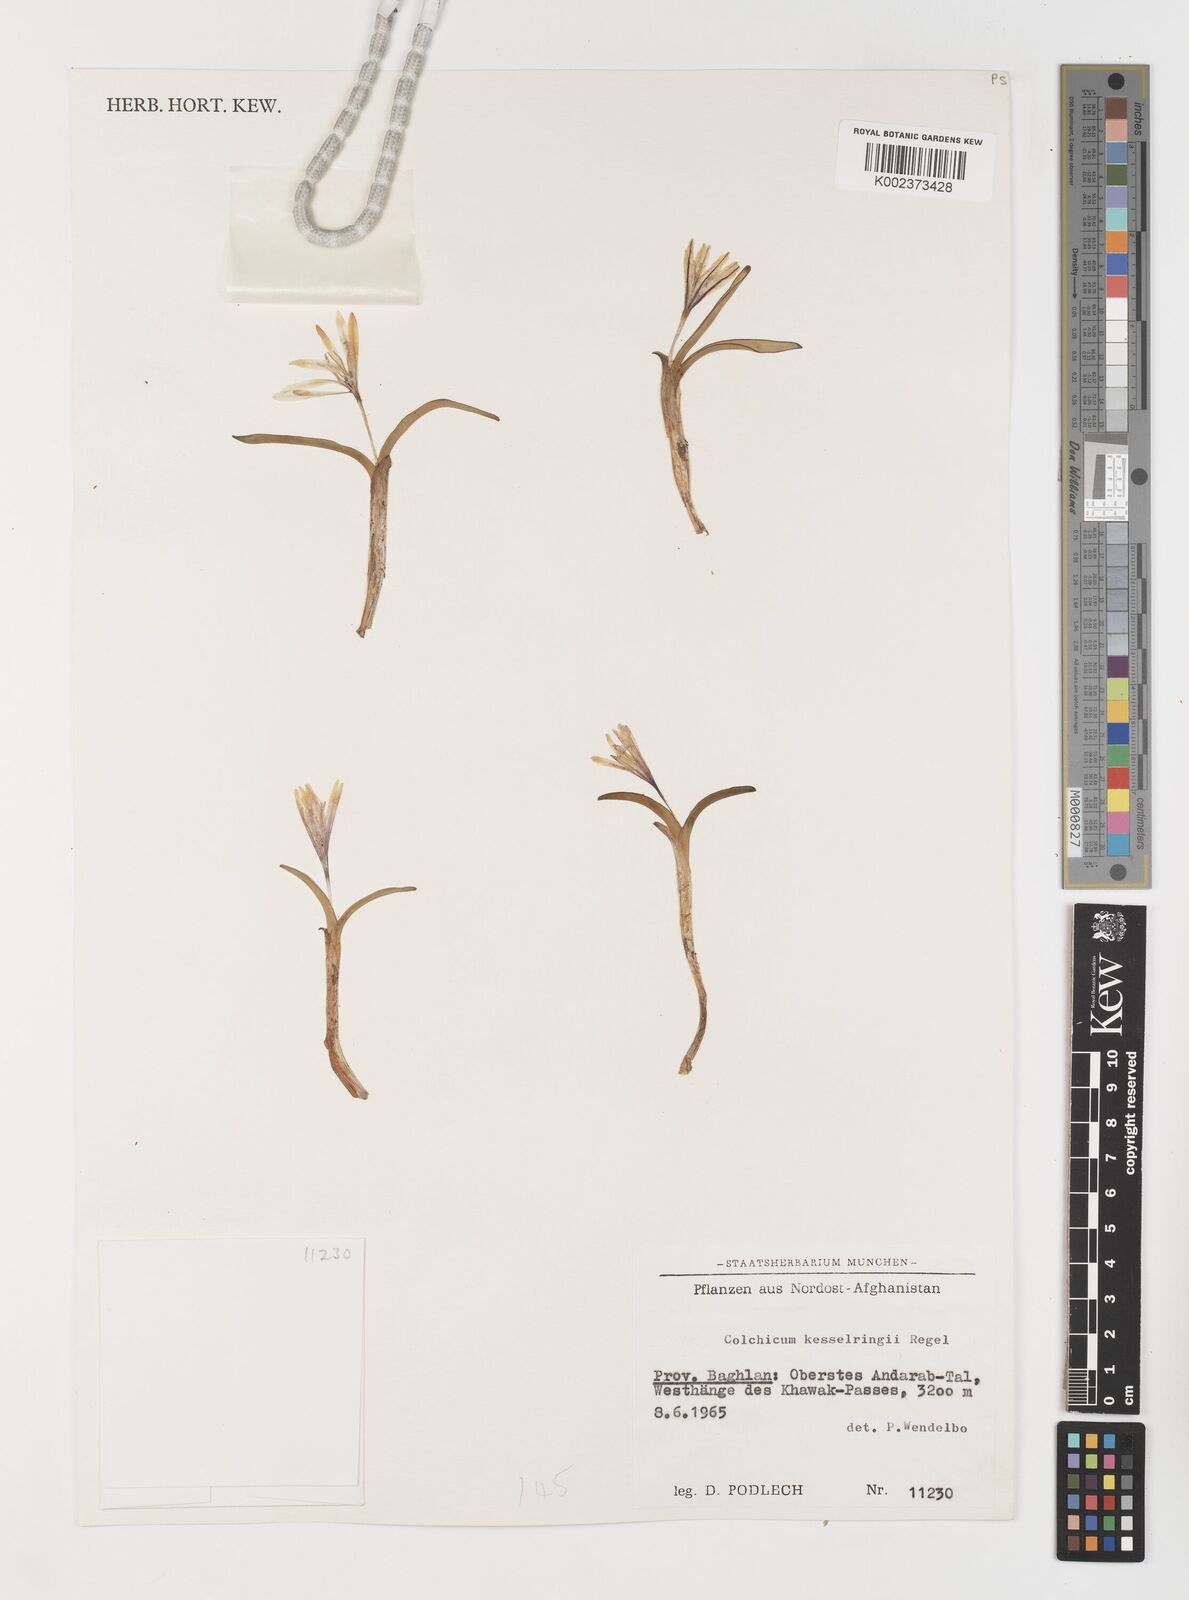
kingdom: Plantae
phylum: Tracheophyta
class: Liliopsida
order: Liliales
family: Colchicaceae
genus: Colchicum
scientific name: Colchicum kesselringii
